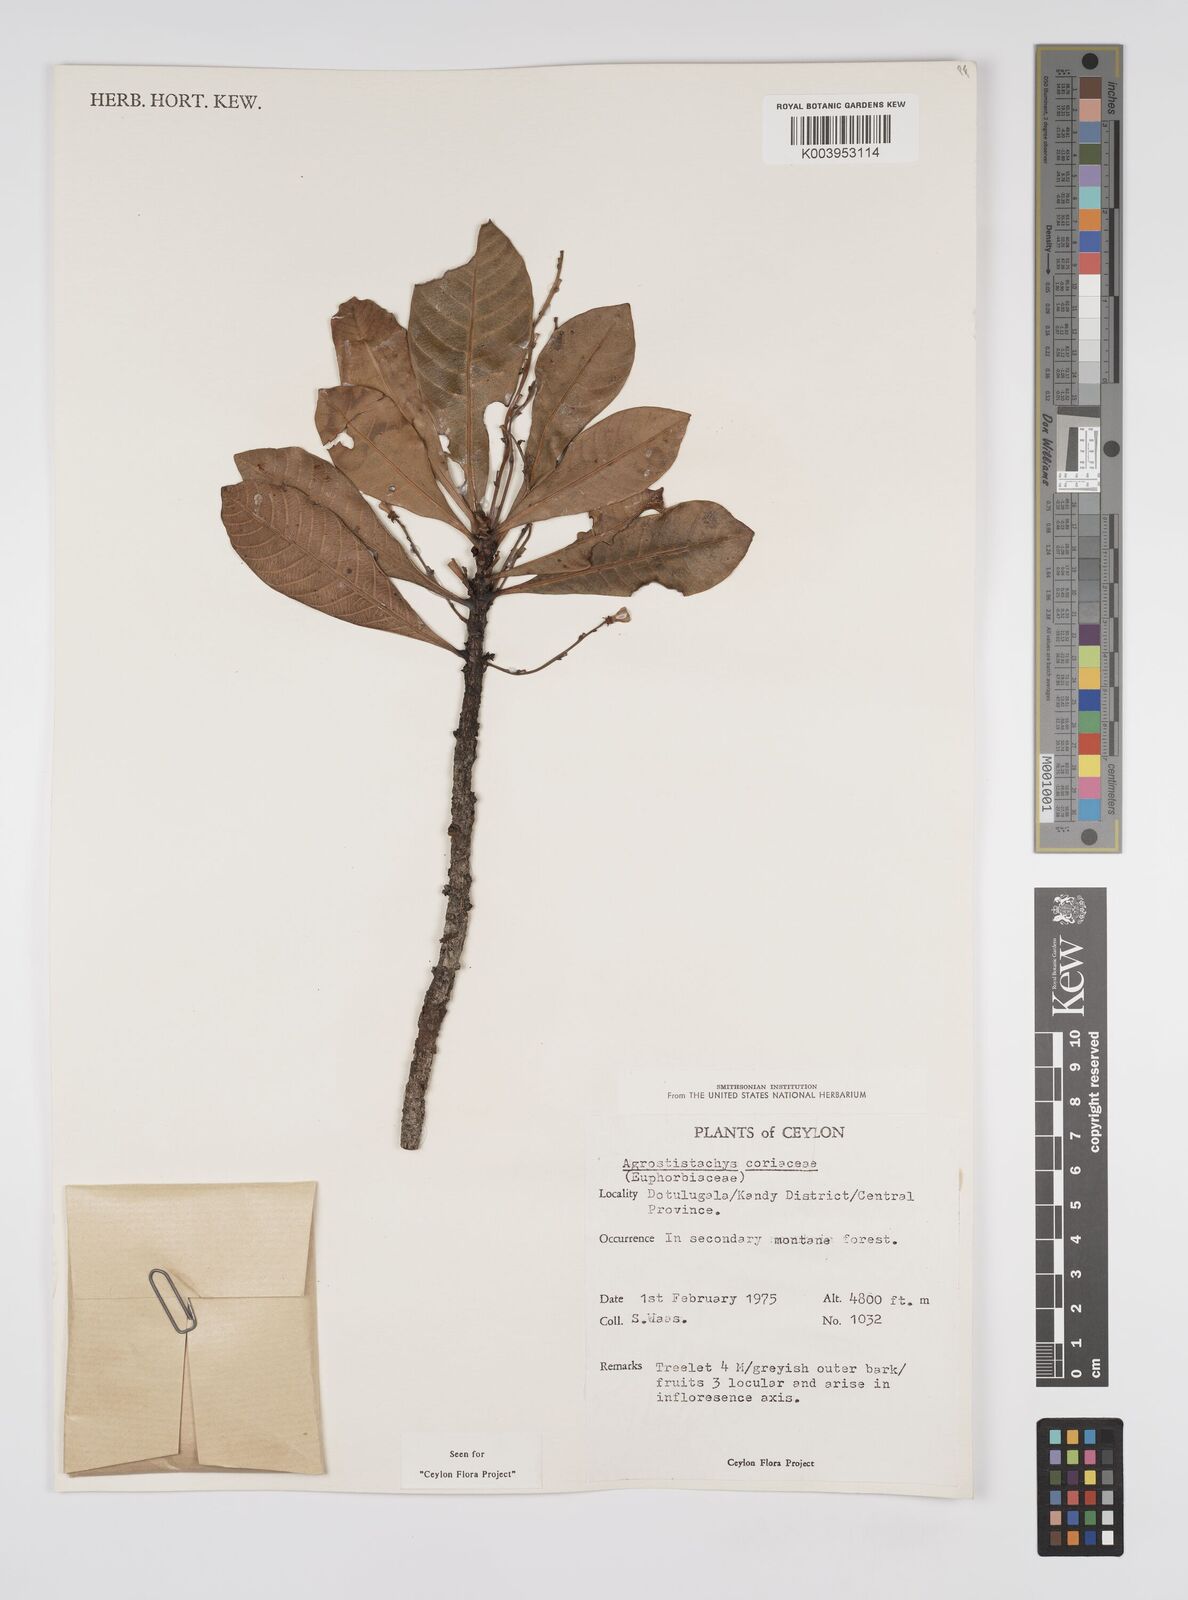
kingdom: Plantae
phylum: Tracheophyta
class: Magnoliopsida
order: Malpighiales
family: Euphorbiaceae
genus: Agrostistachys
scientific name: Agrostistachys borneensis
